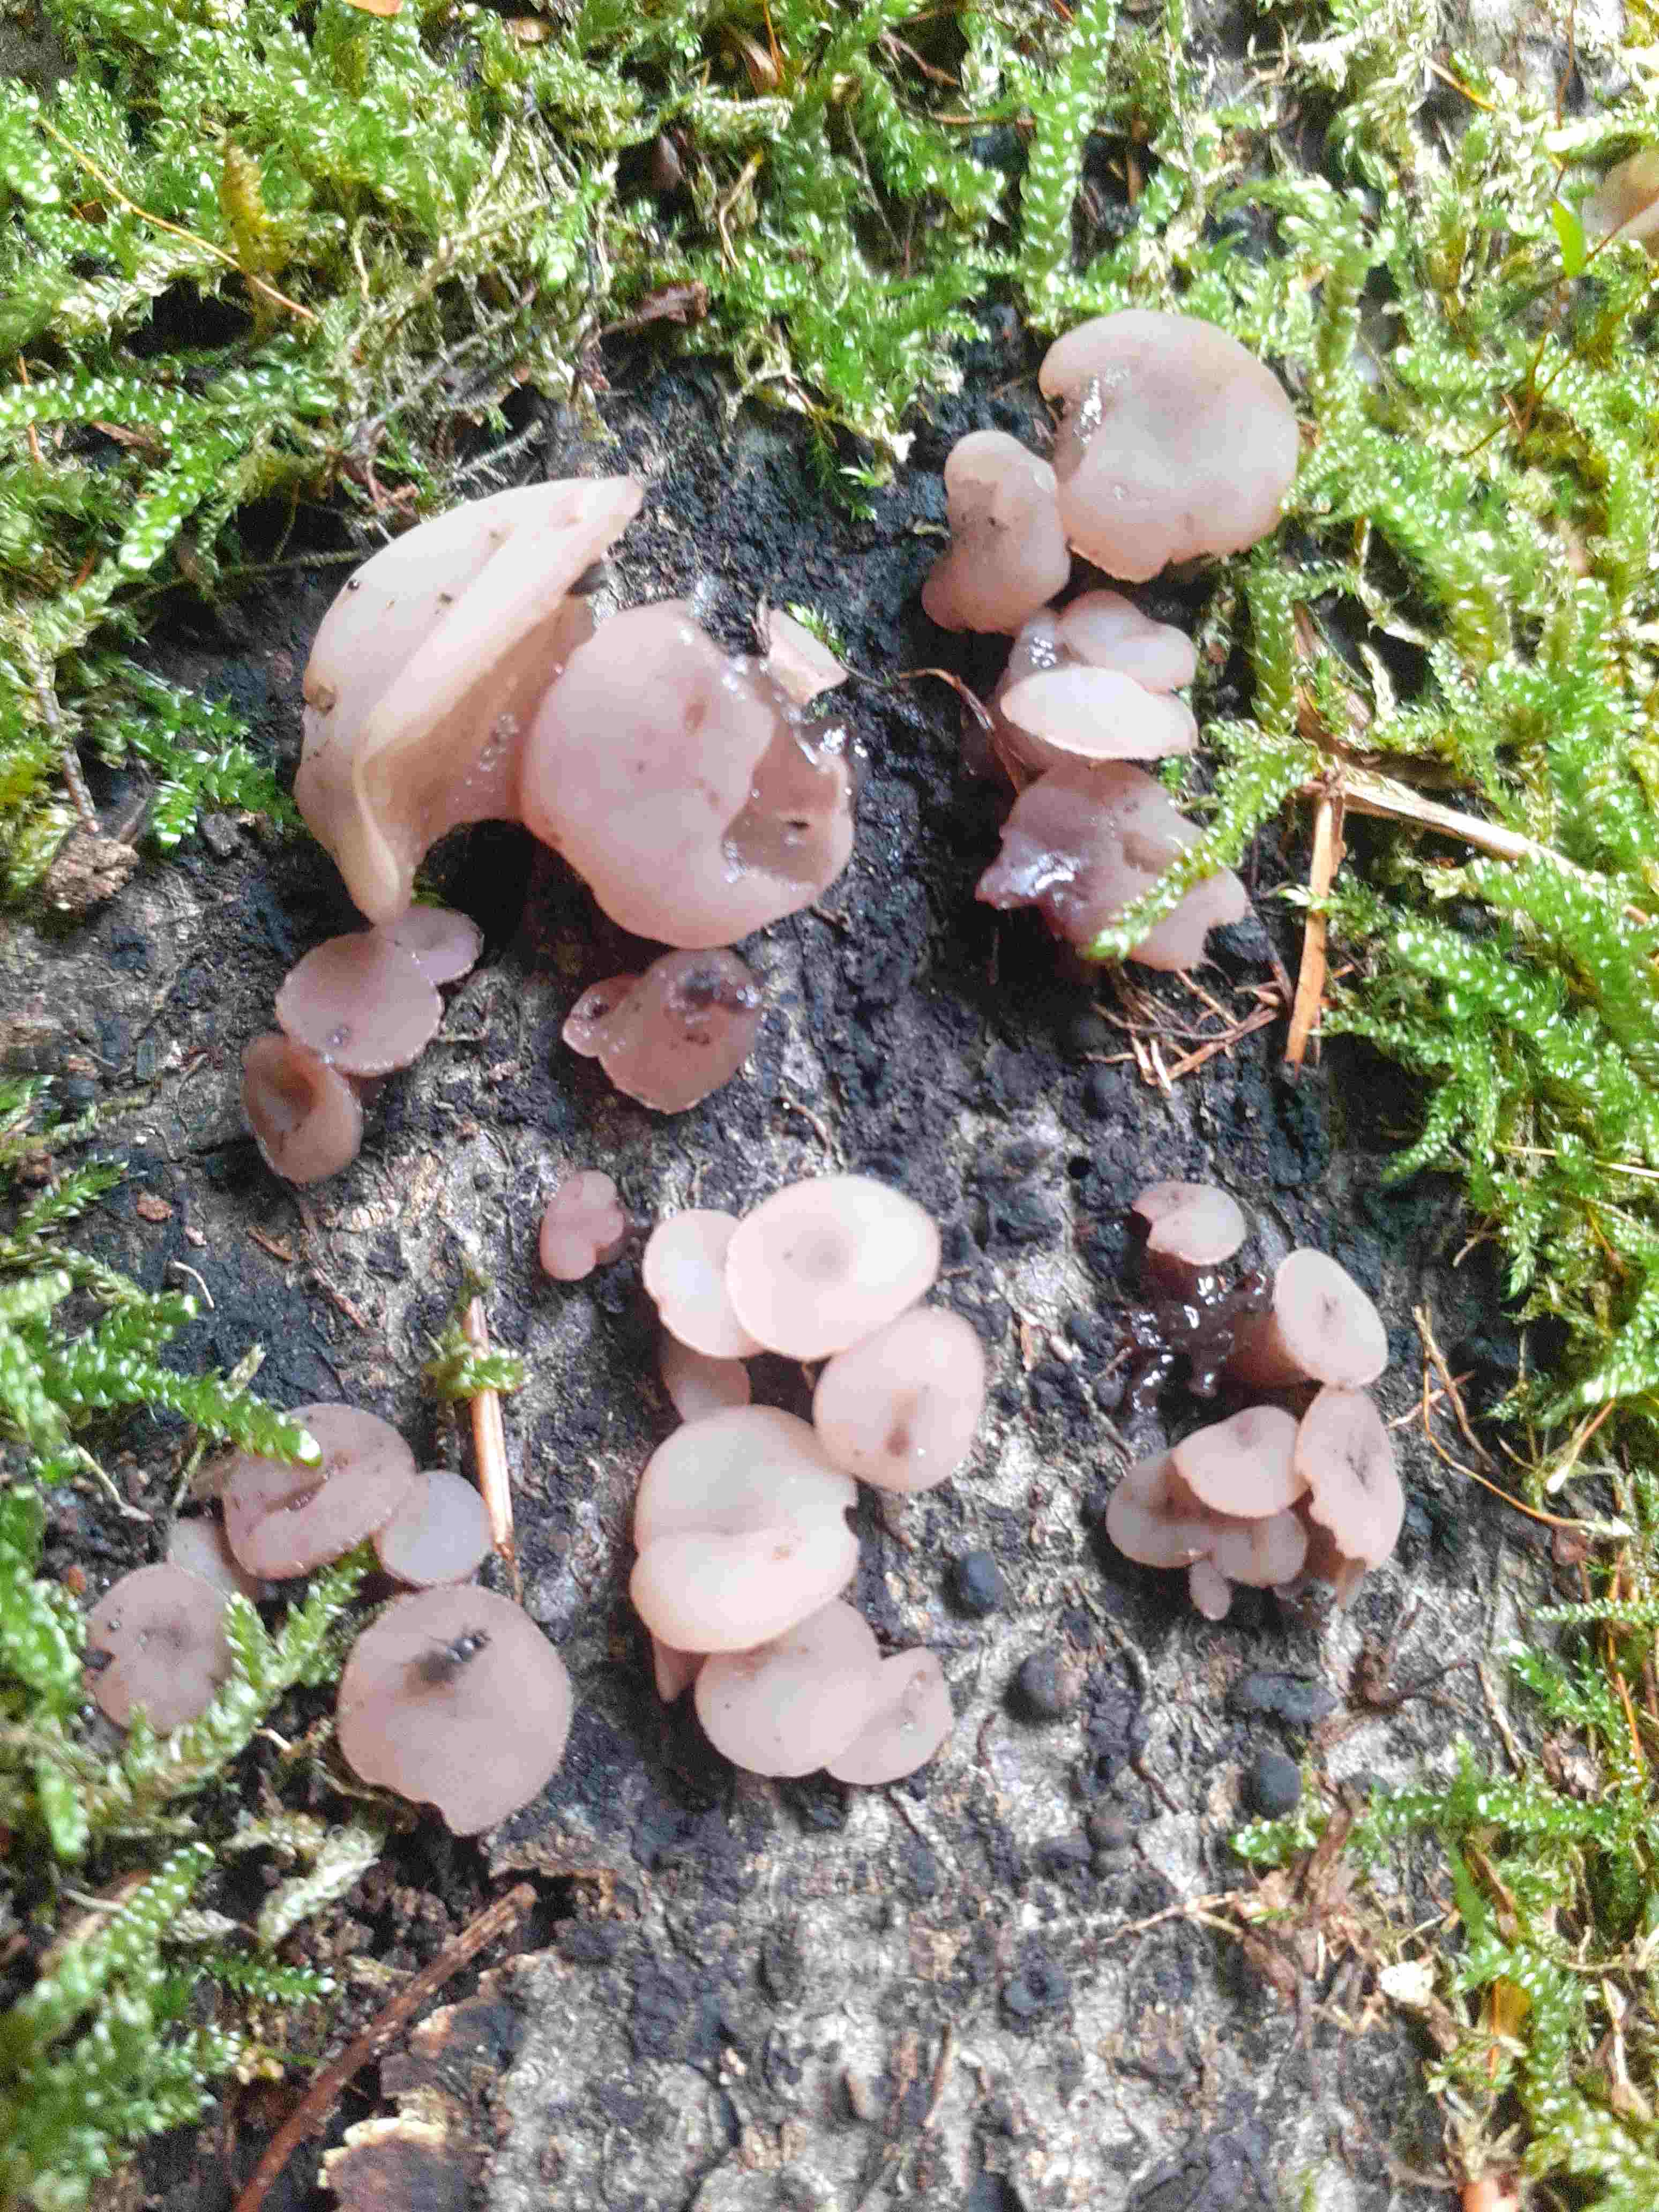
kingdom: Fungi
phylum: Ascomycota
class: Leotiomycetes
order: Helotiales
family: Gelatinodiscaceae
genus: Neobulgaria
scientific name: Neobulgaria pura
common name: bleg bævreskive
